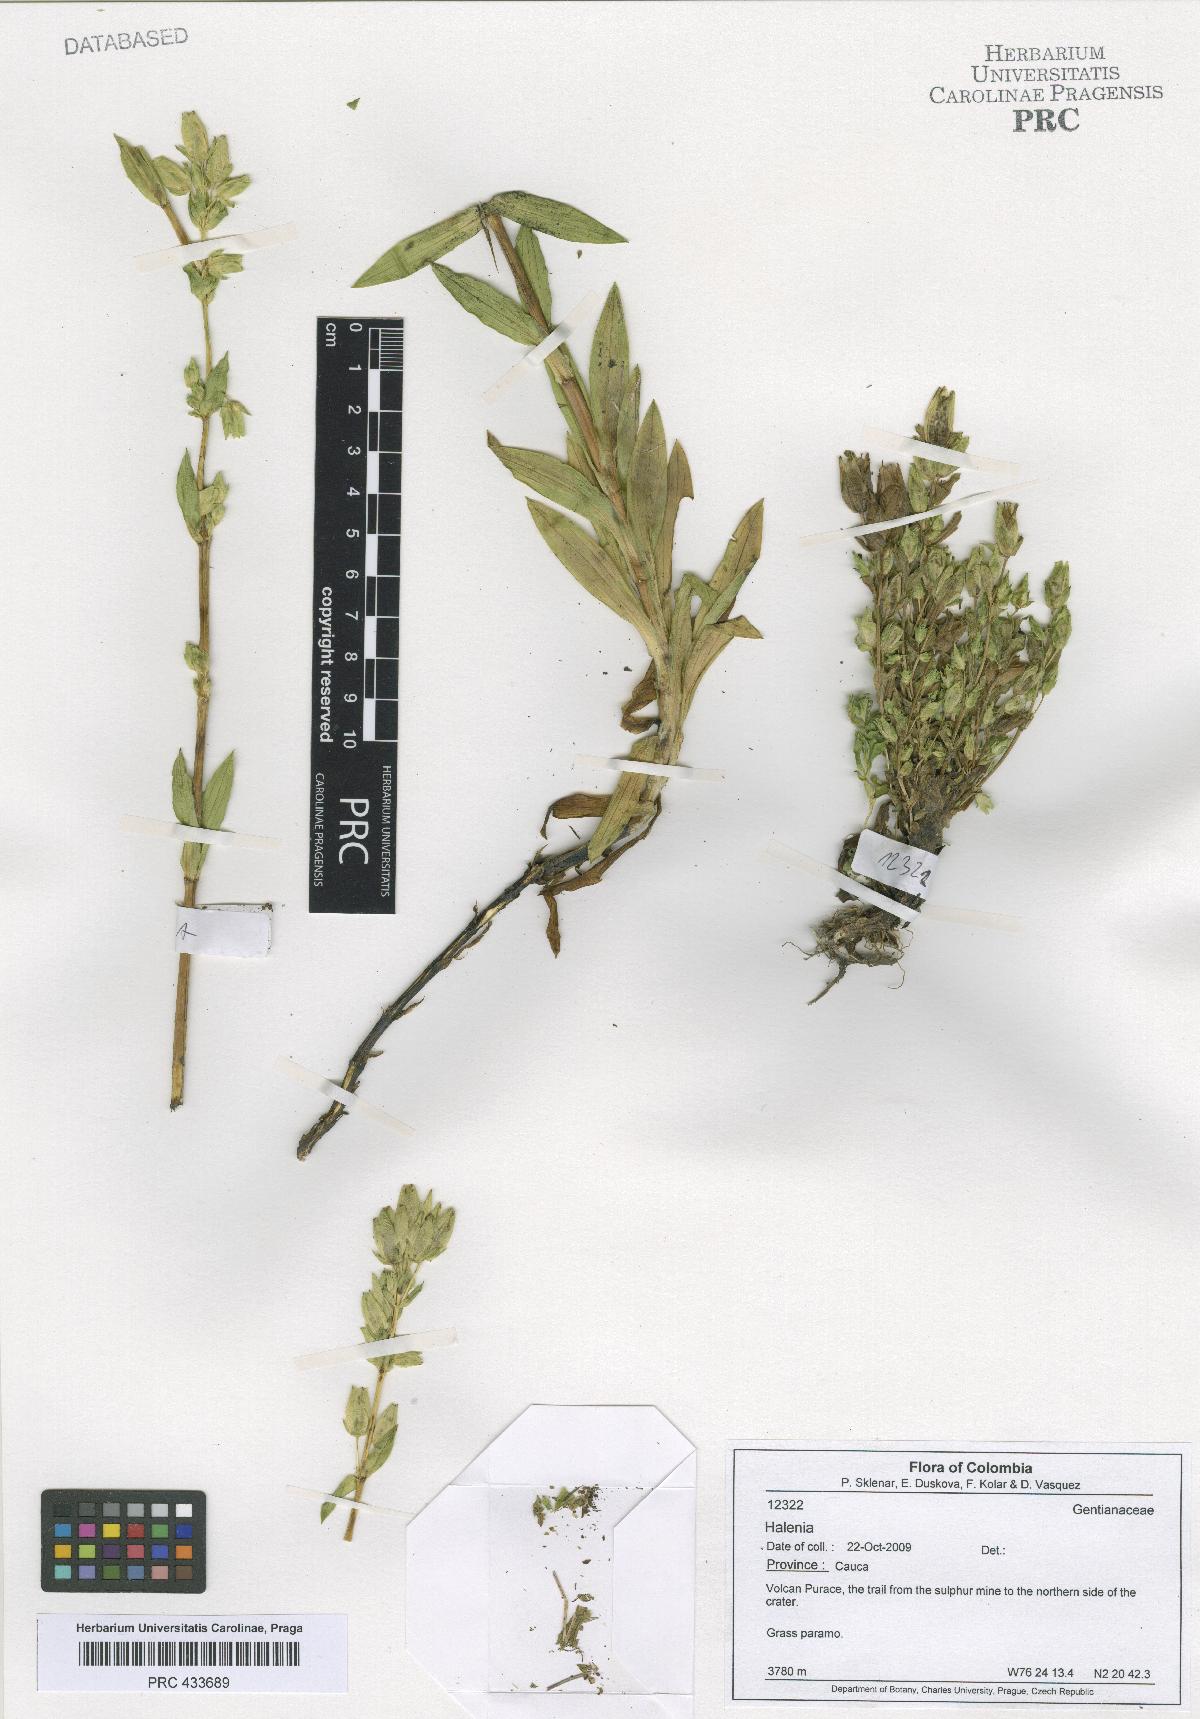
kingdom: Plantae
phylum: Tracheophyta
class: Magnoliopsida
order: Gentianales
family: Gentianaceae
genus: Halenia
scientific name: Halenia
